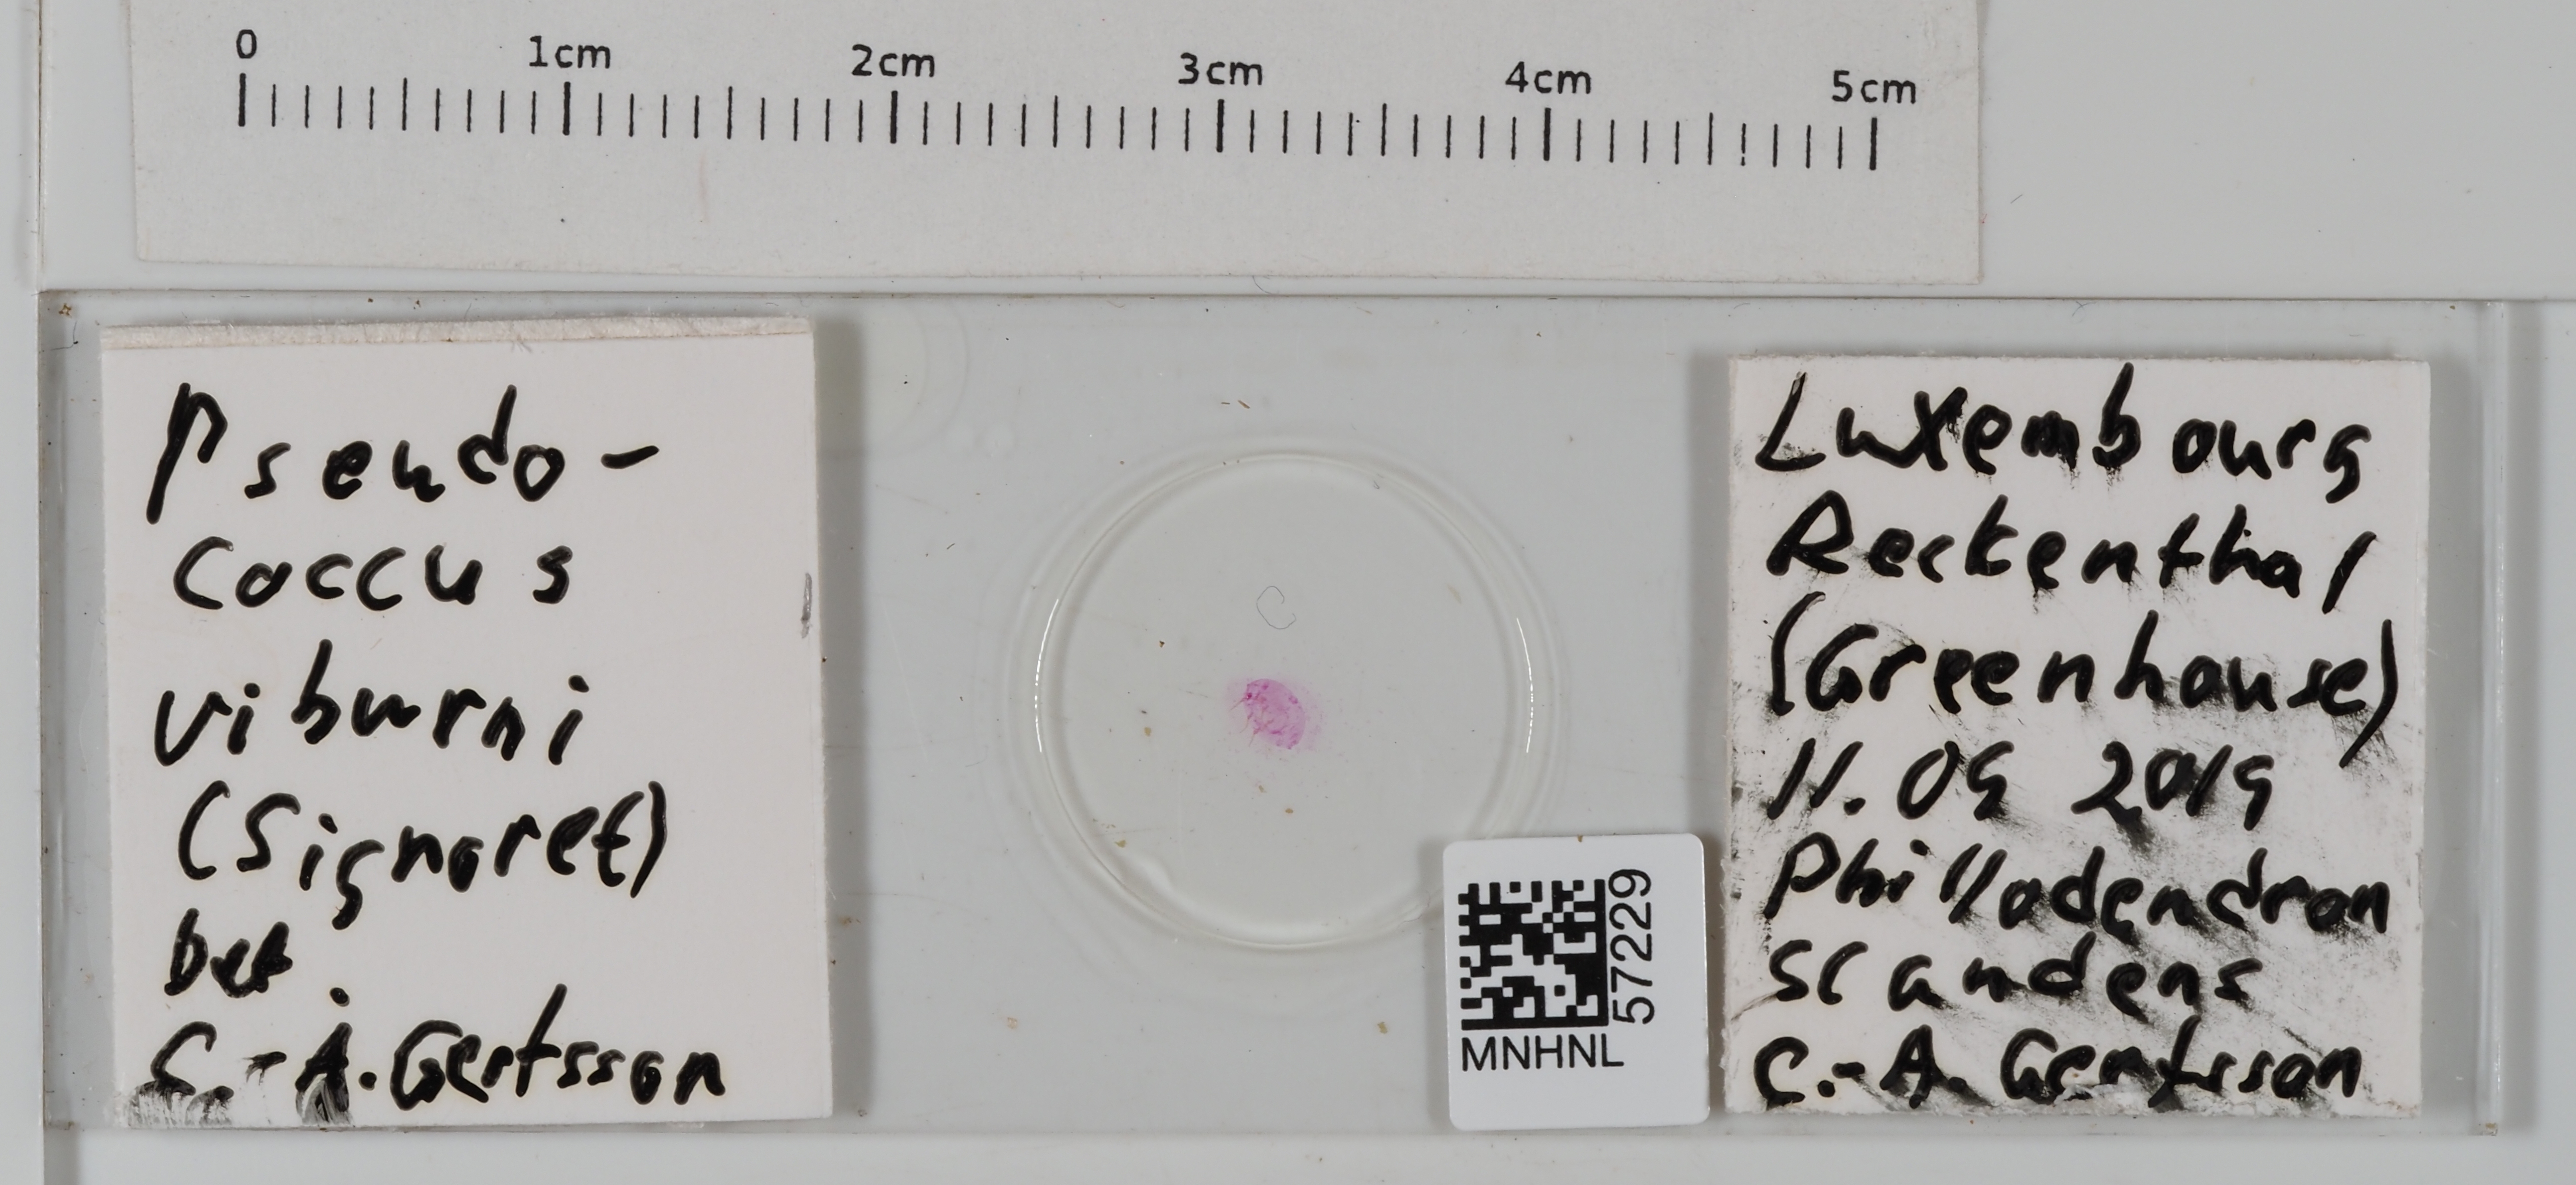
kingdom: Animalia
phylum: Arthropoda
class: Insecta
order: Hemiptera
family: Pseudococcidae
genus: Pseudococcus
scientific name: Pseudococcus viburni
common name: Obscure mealybug
